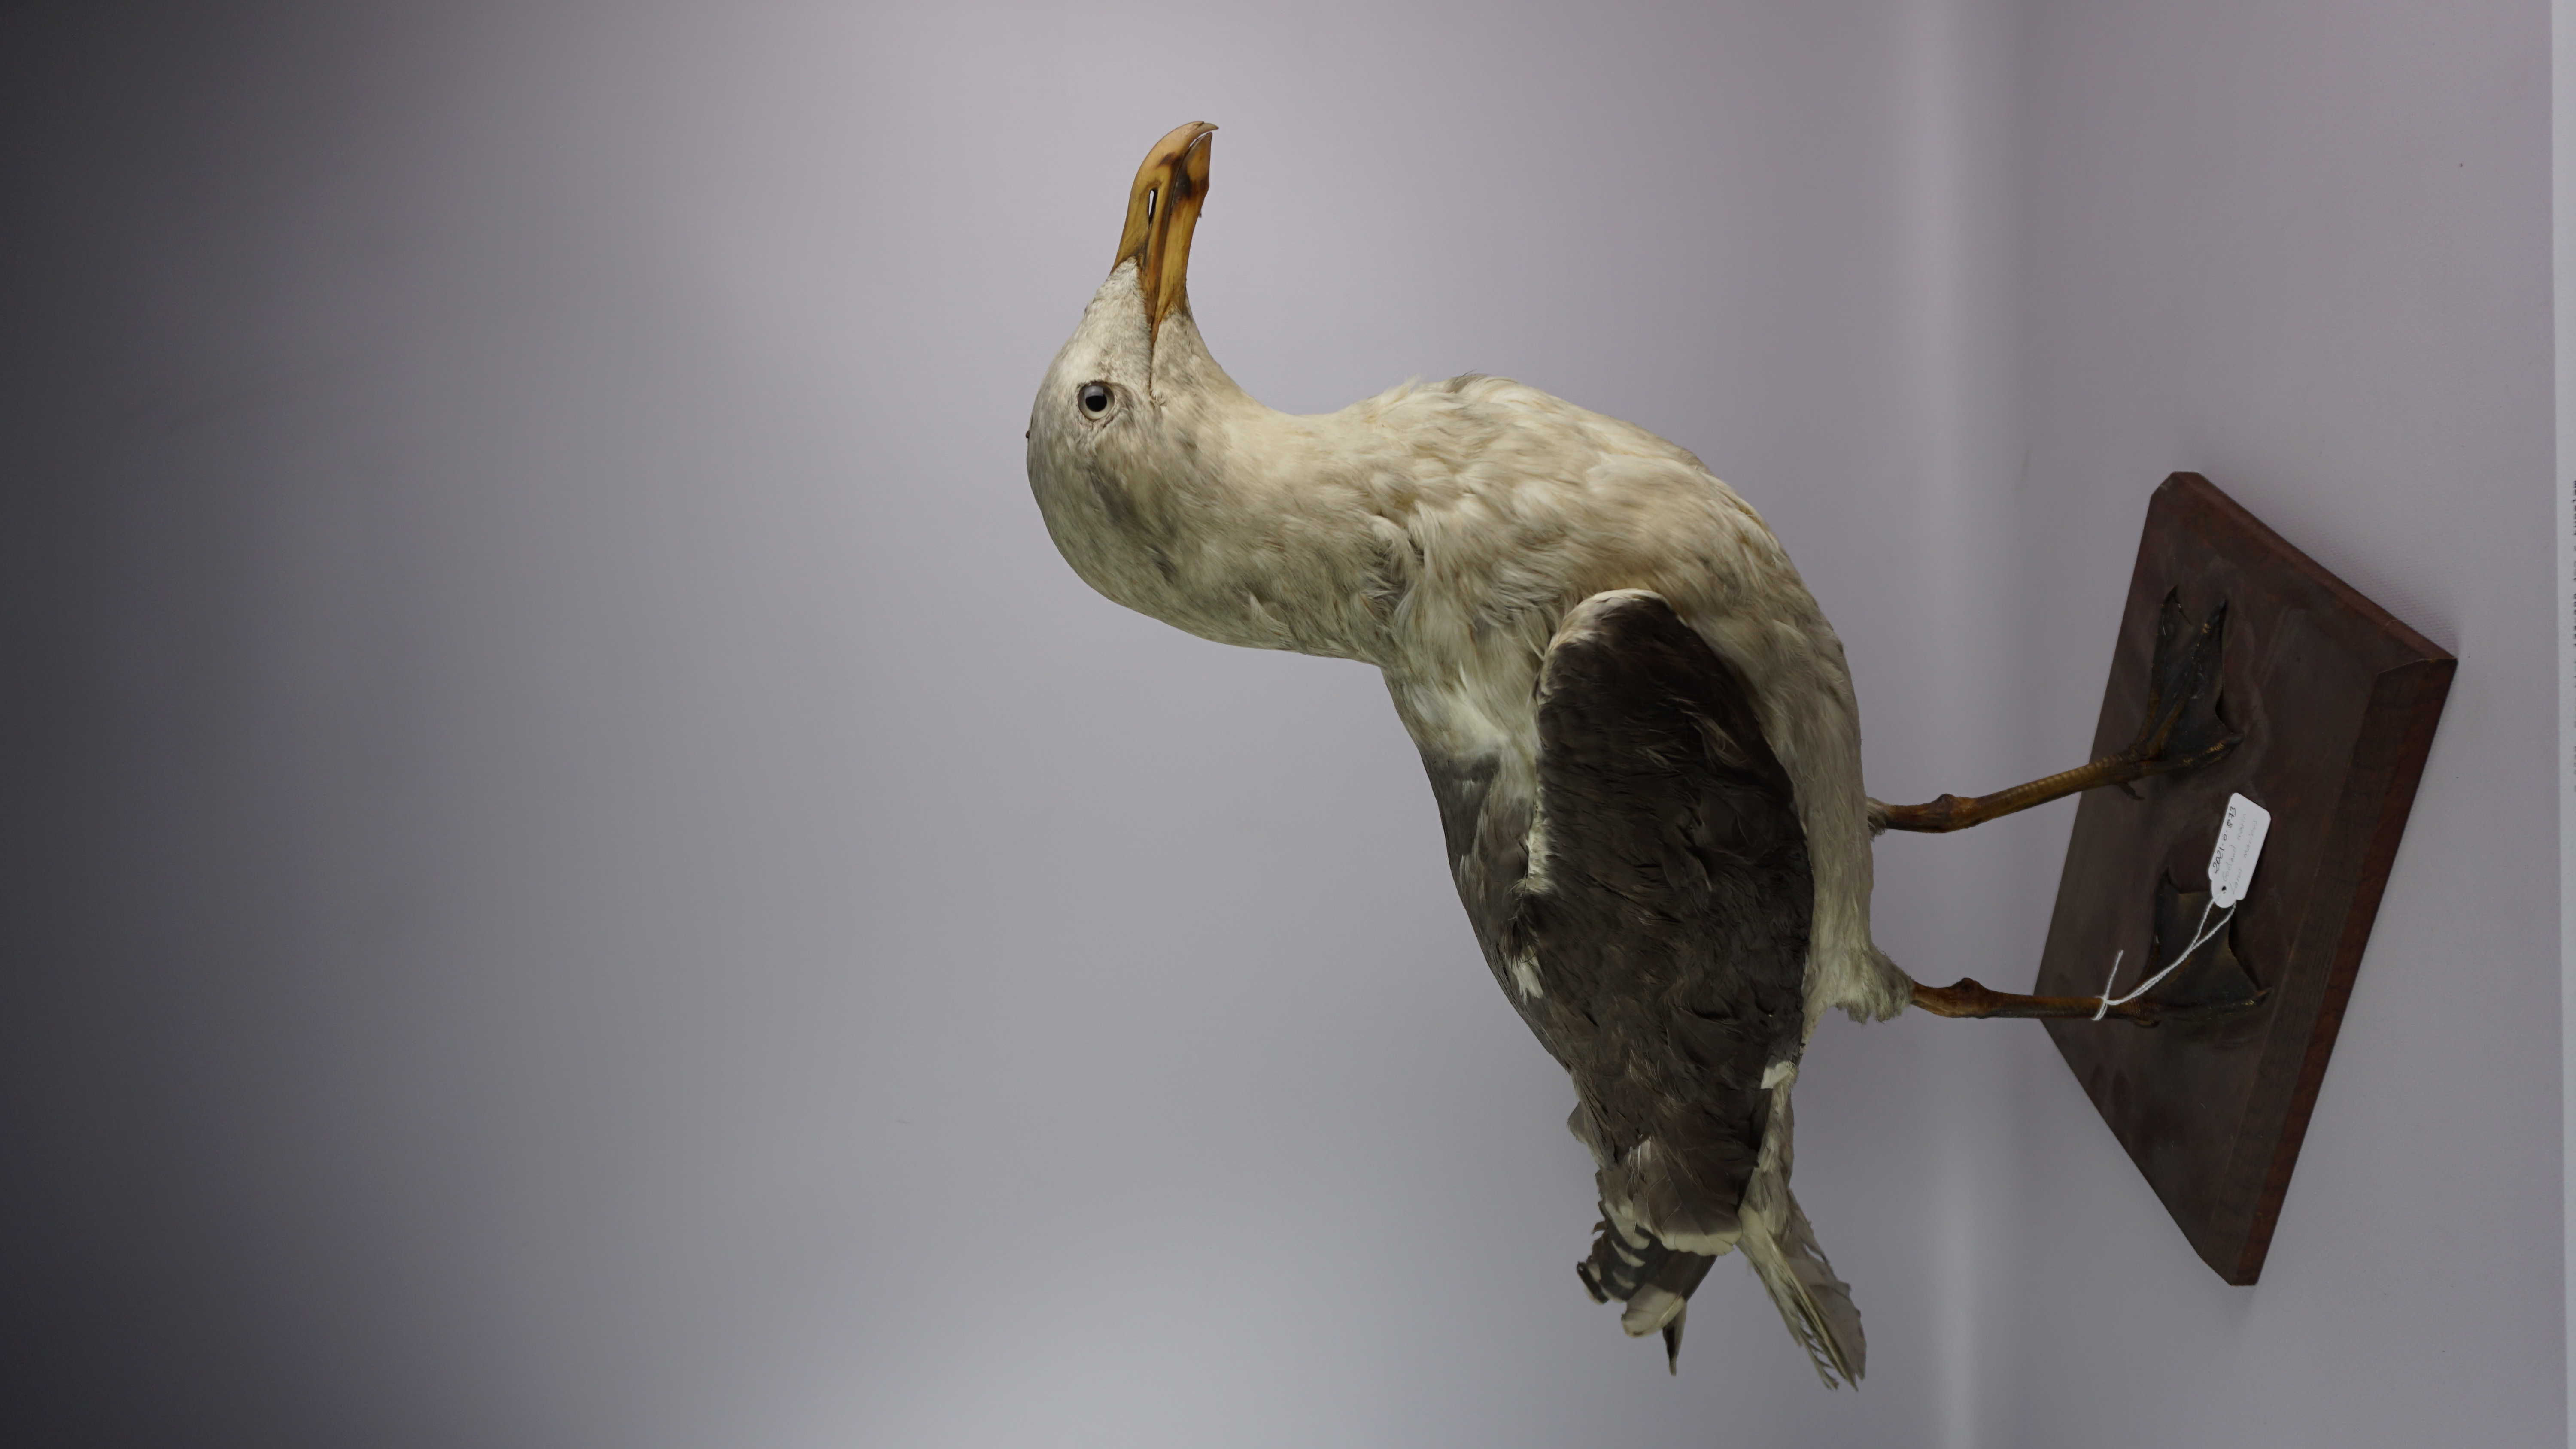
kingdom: Animalia
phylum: Chordata
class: Aves
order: Charadriiformes
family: Laridae
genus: Larus
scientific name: Larus marinus
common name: Great black-backed gull
